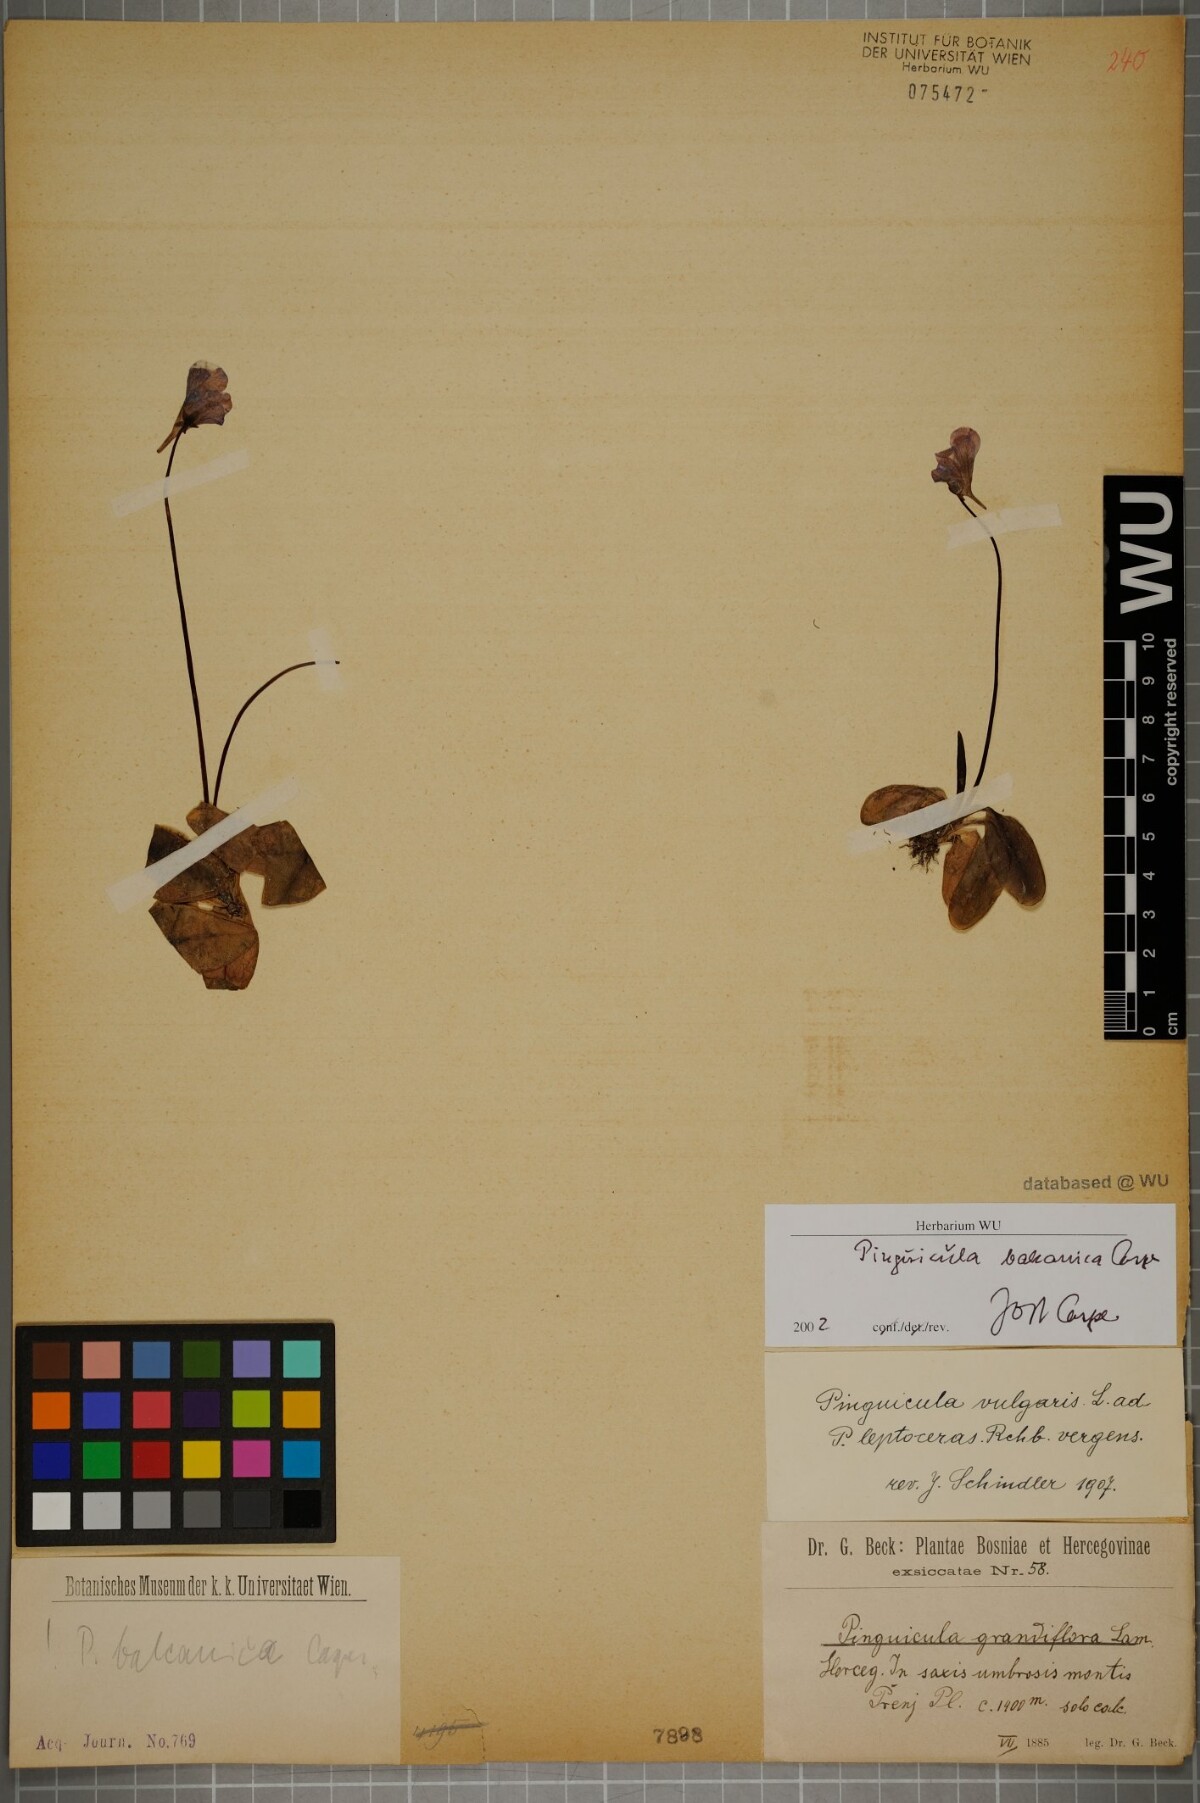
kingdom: Plantae
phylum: Tracheophyta
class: Magnoliopsida
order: Lamiales
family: Lentibulariaceae
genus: Pinguicula
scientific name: Pinguicula balcanica
